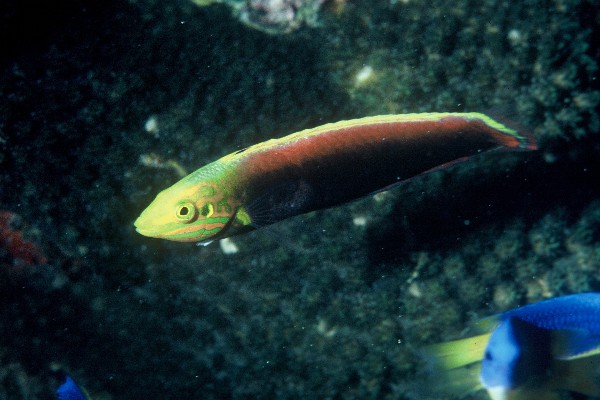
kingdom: Animalia
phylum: Chordata
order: Perciformes
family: Labridae
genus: Halichoeres
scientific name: Halichoeres iridis
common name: Rainbow wrasse
